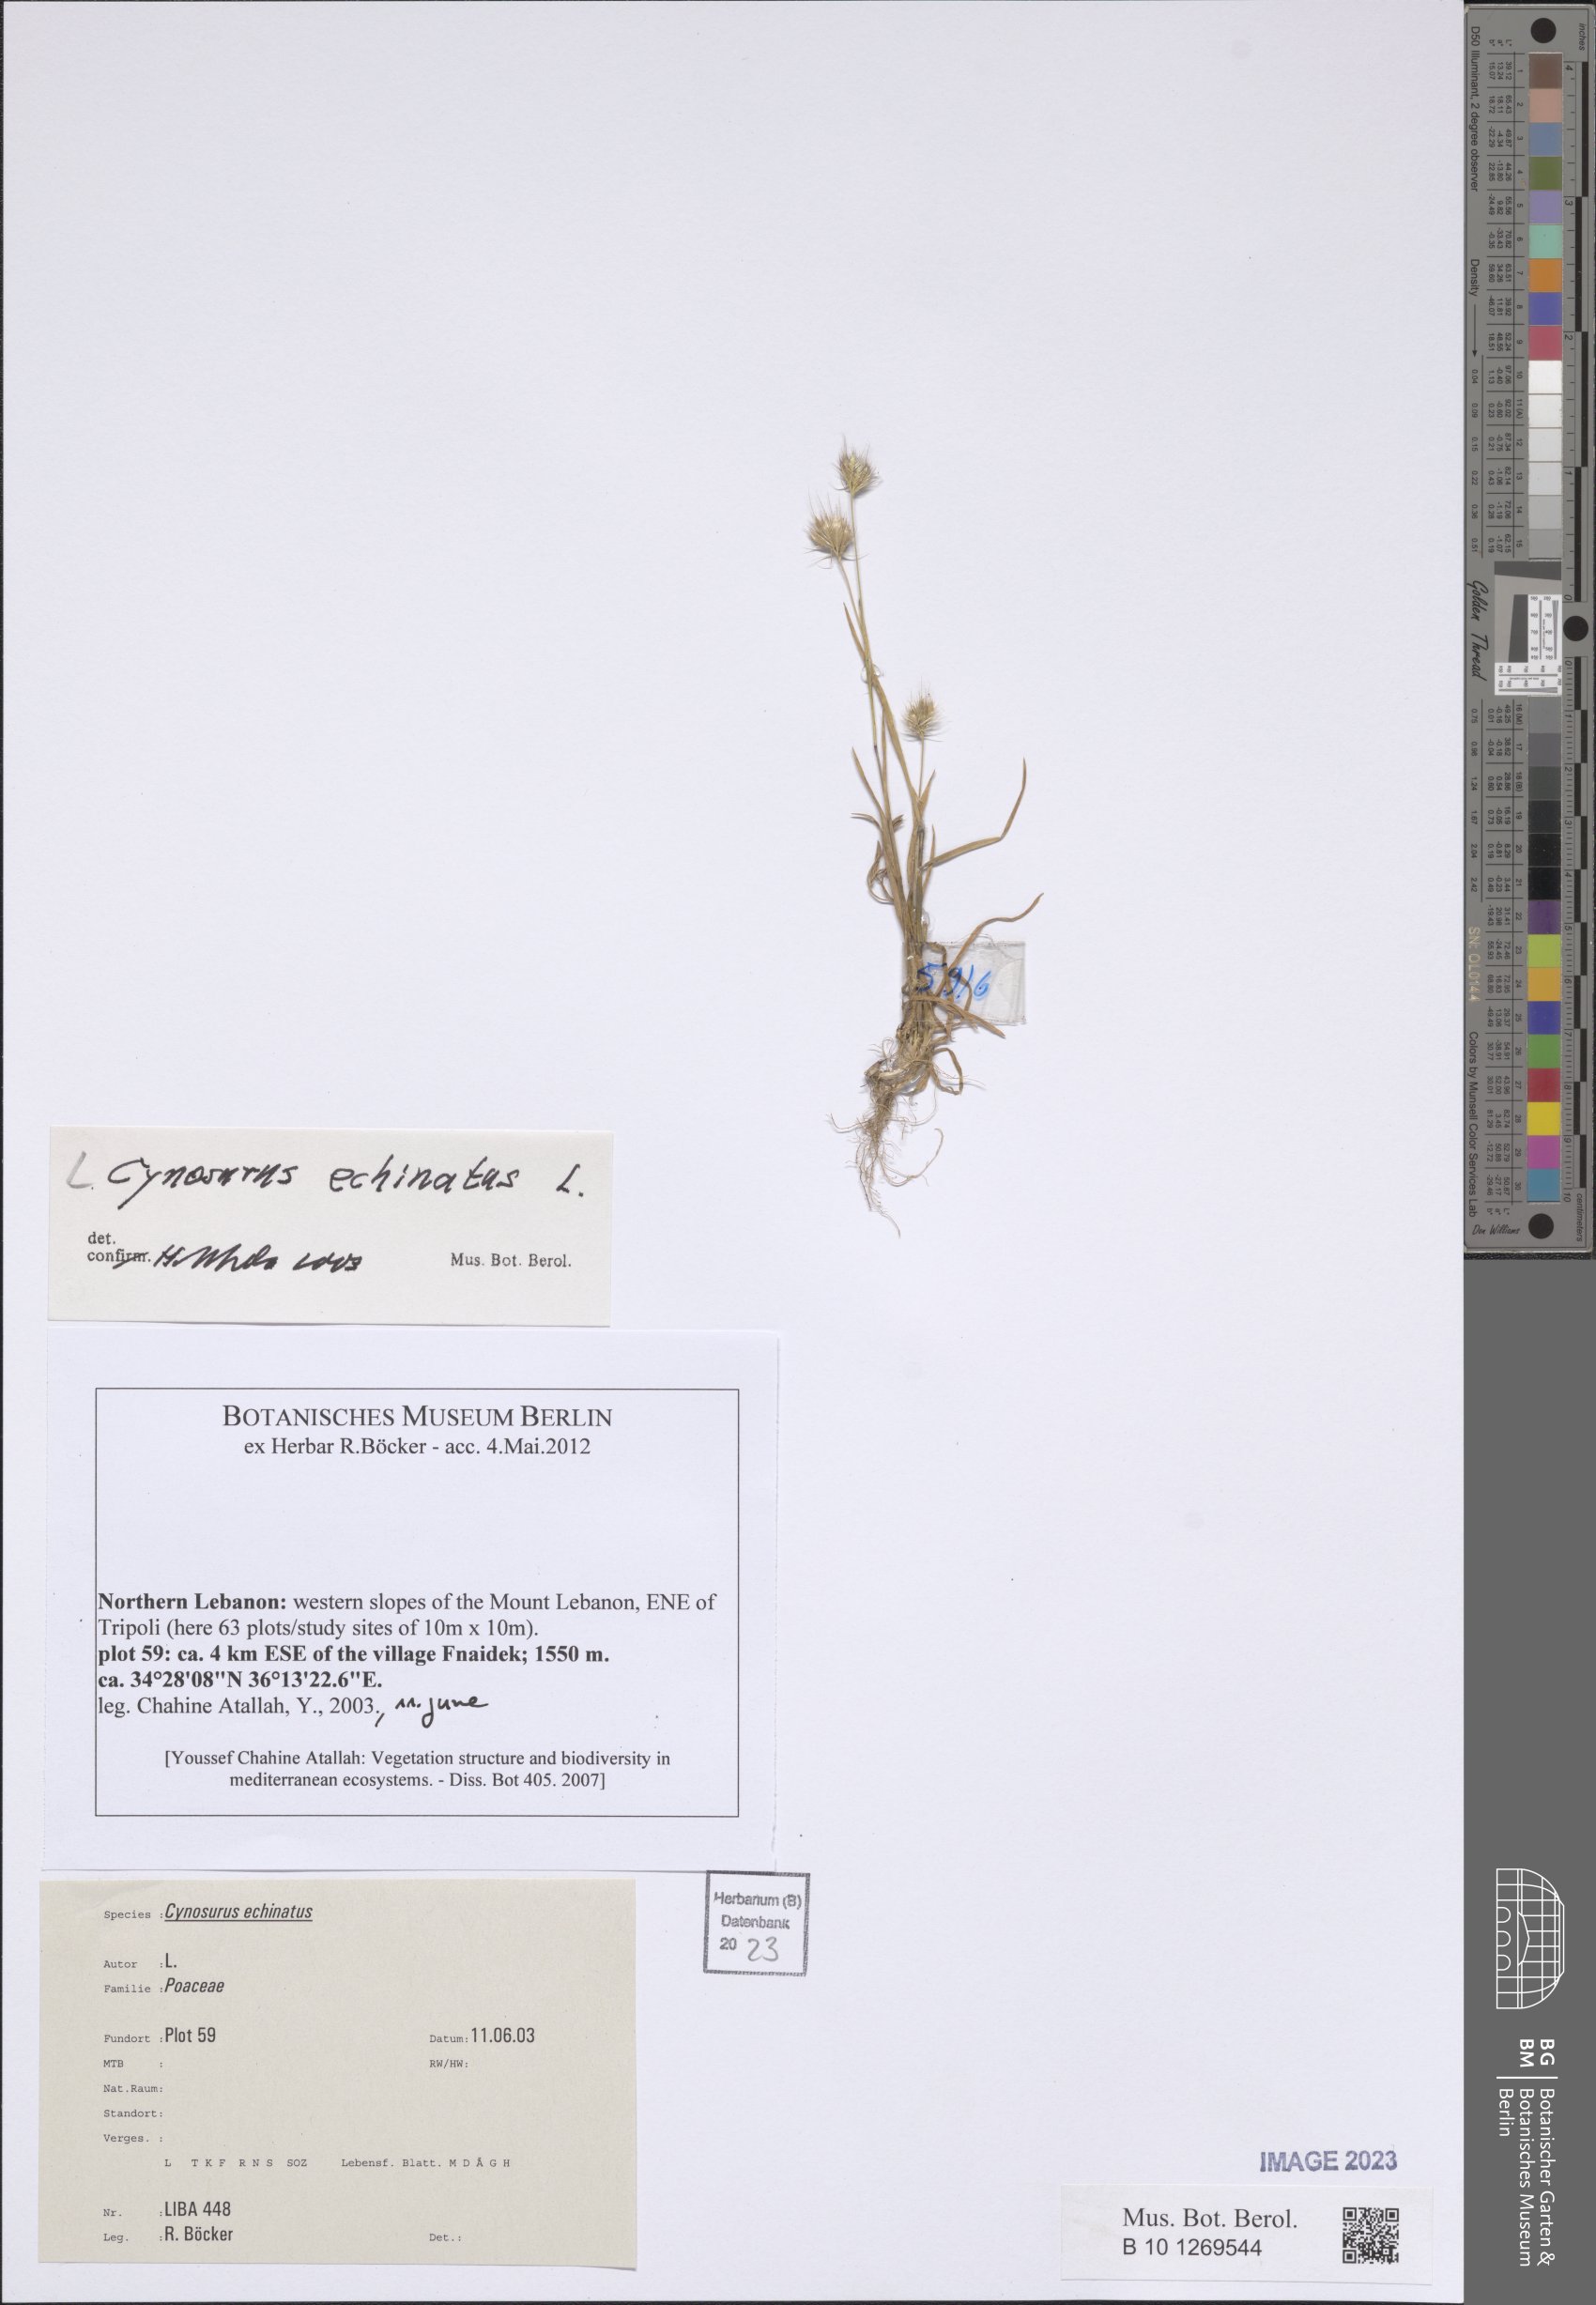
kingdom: Plantae
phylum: Tracheophyta
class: Liliopsida
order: Poales
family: Poaceae
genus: Cynosurus
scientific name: Cynosurus echinatus
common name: Rough dog's-tail
